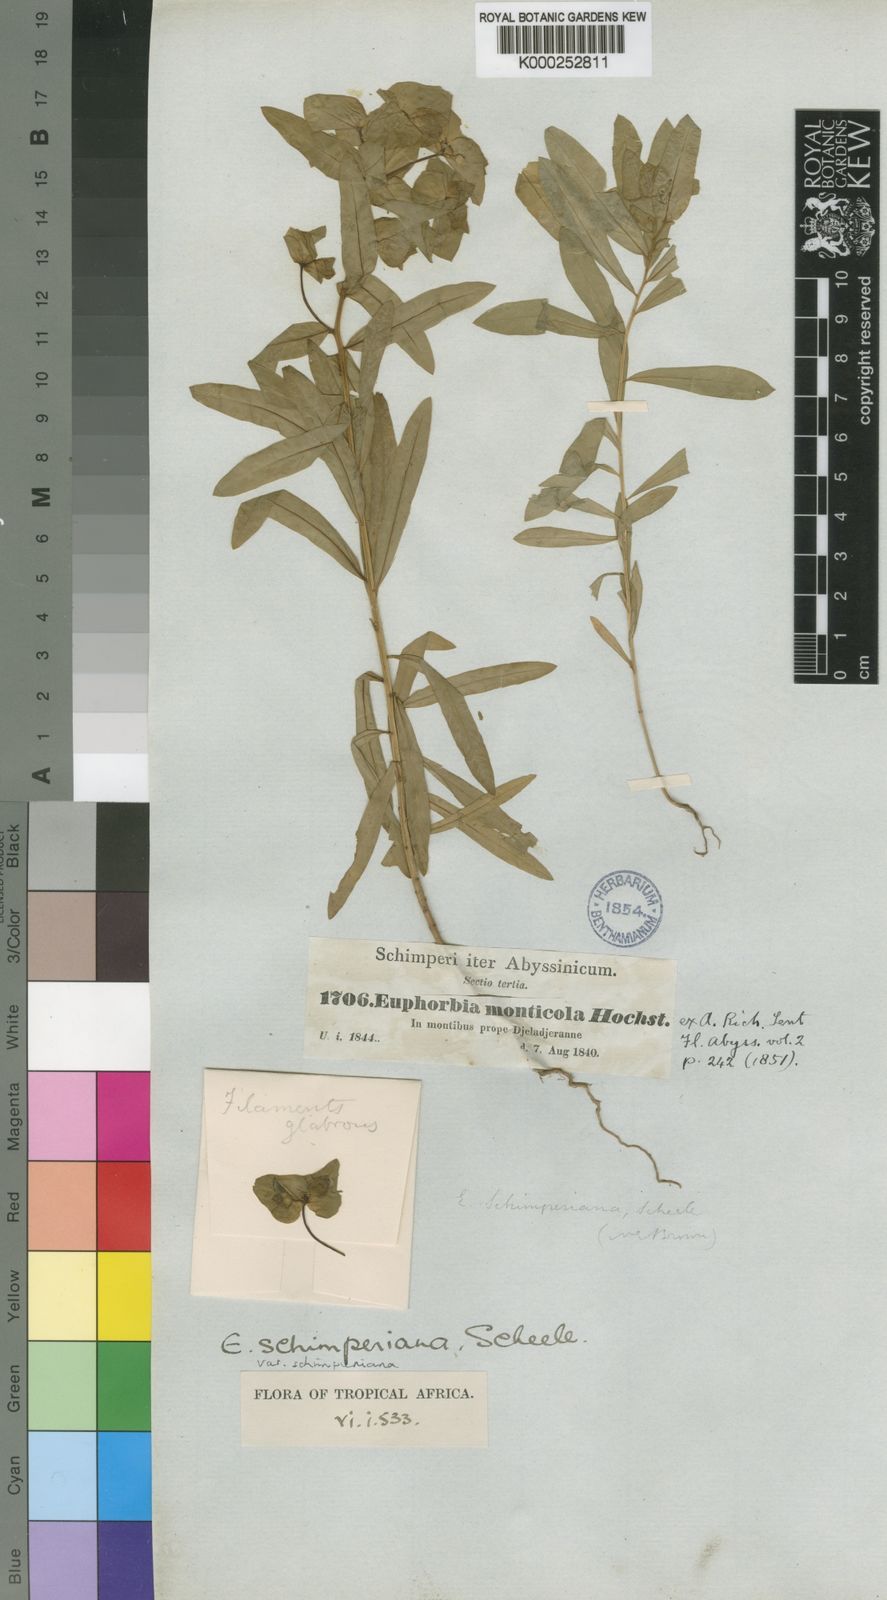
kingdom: Plantae
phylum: Tracheophyta
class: Magnoliopsida
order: Malpighiales
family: Euphorbiaceae
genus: Euphorbia
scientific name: Euphorbia schimperiana
